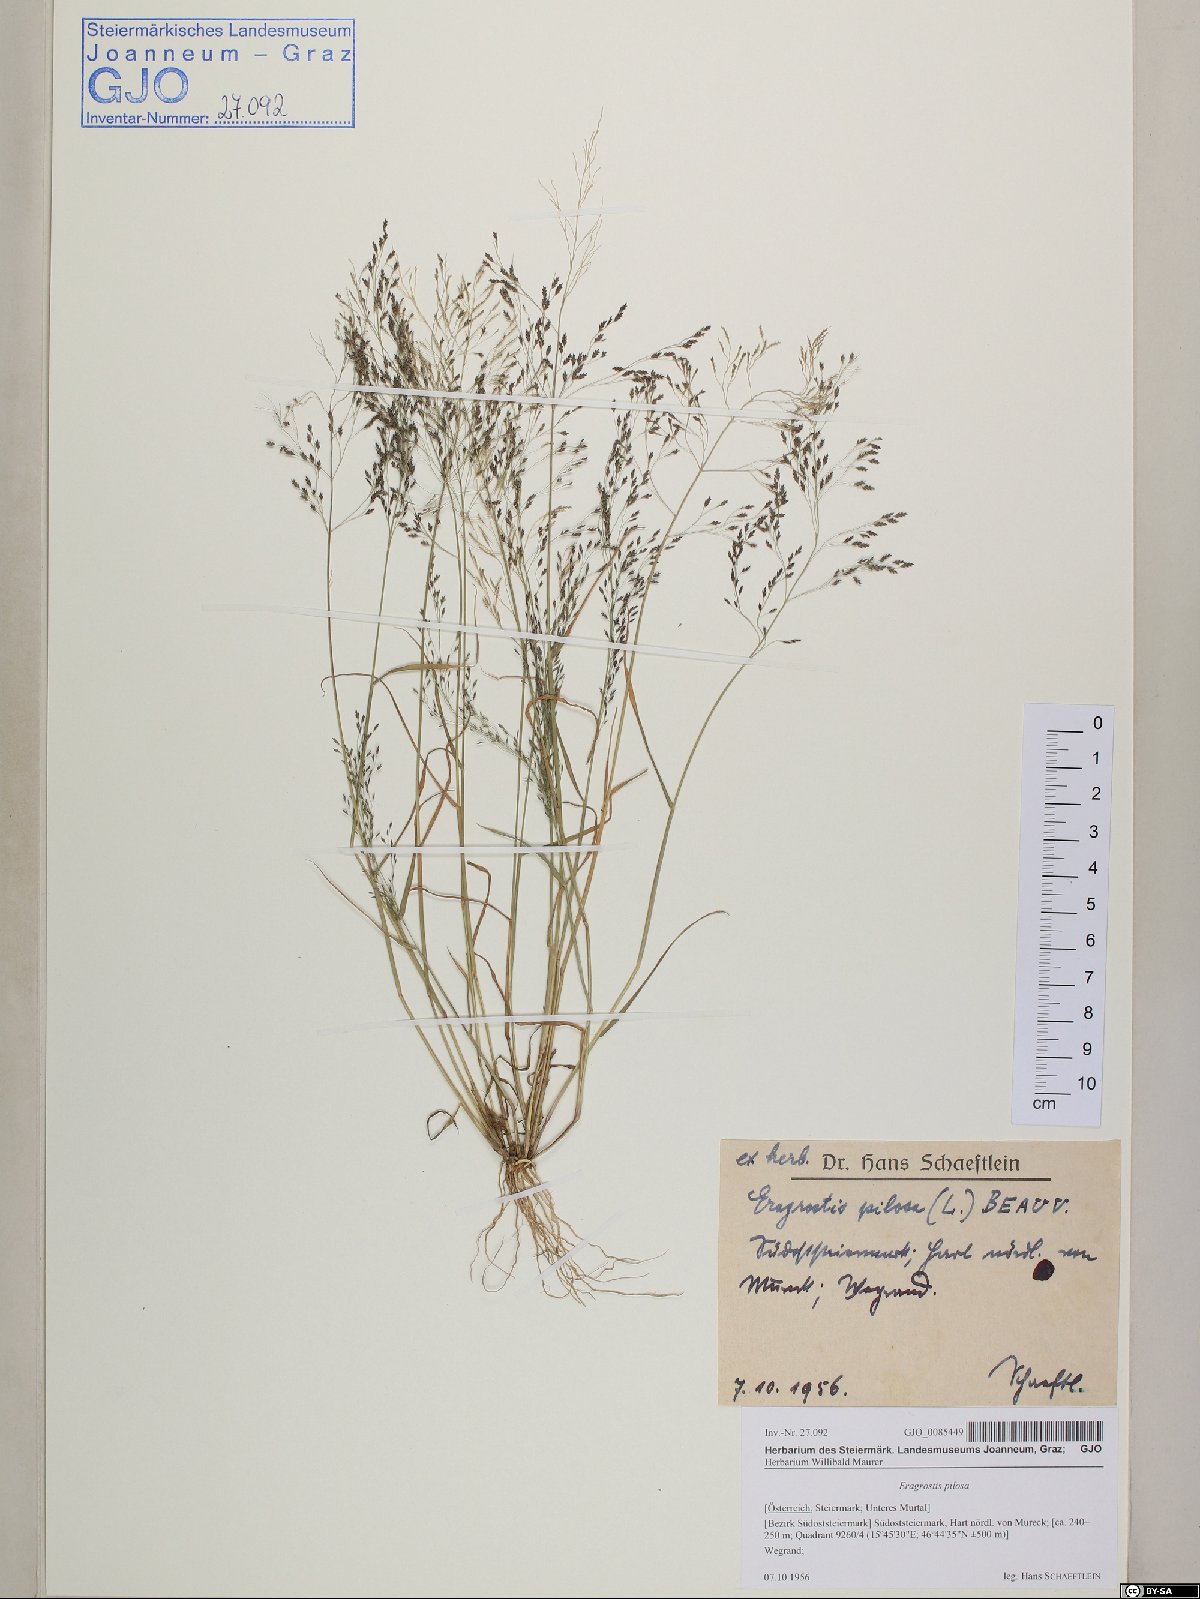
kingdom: Plantae
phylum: Tracheophyta
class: Liliopsida
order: Poales
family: Poaceae
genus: Eragrostis
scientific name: Eragrostis pilosa
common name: Indian lovegrass
